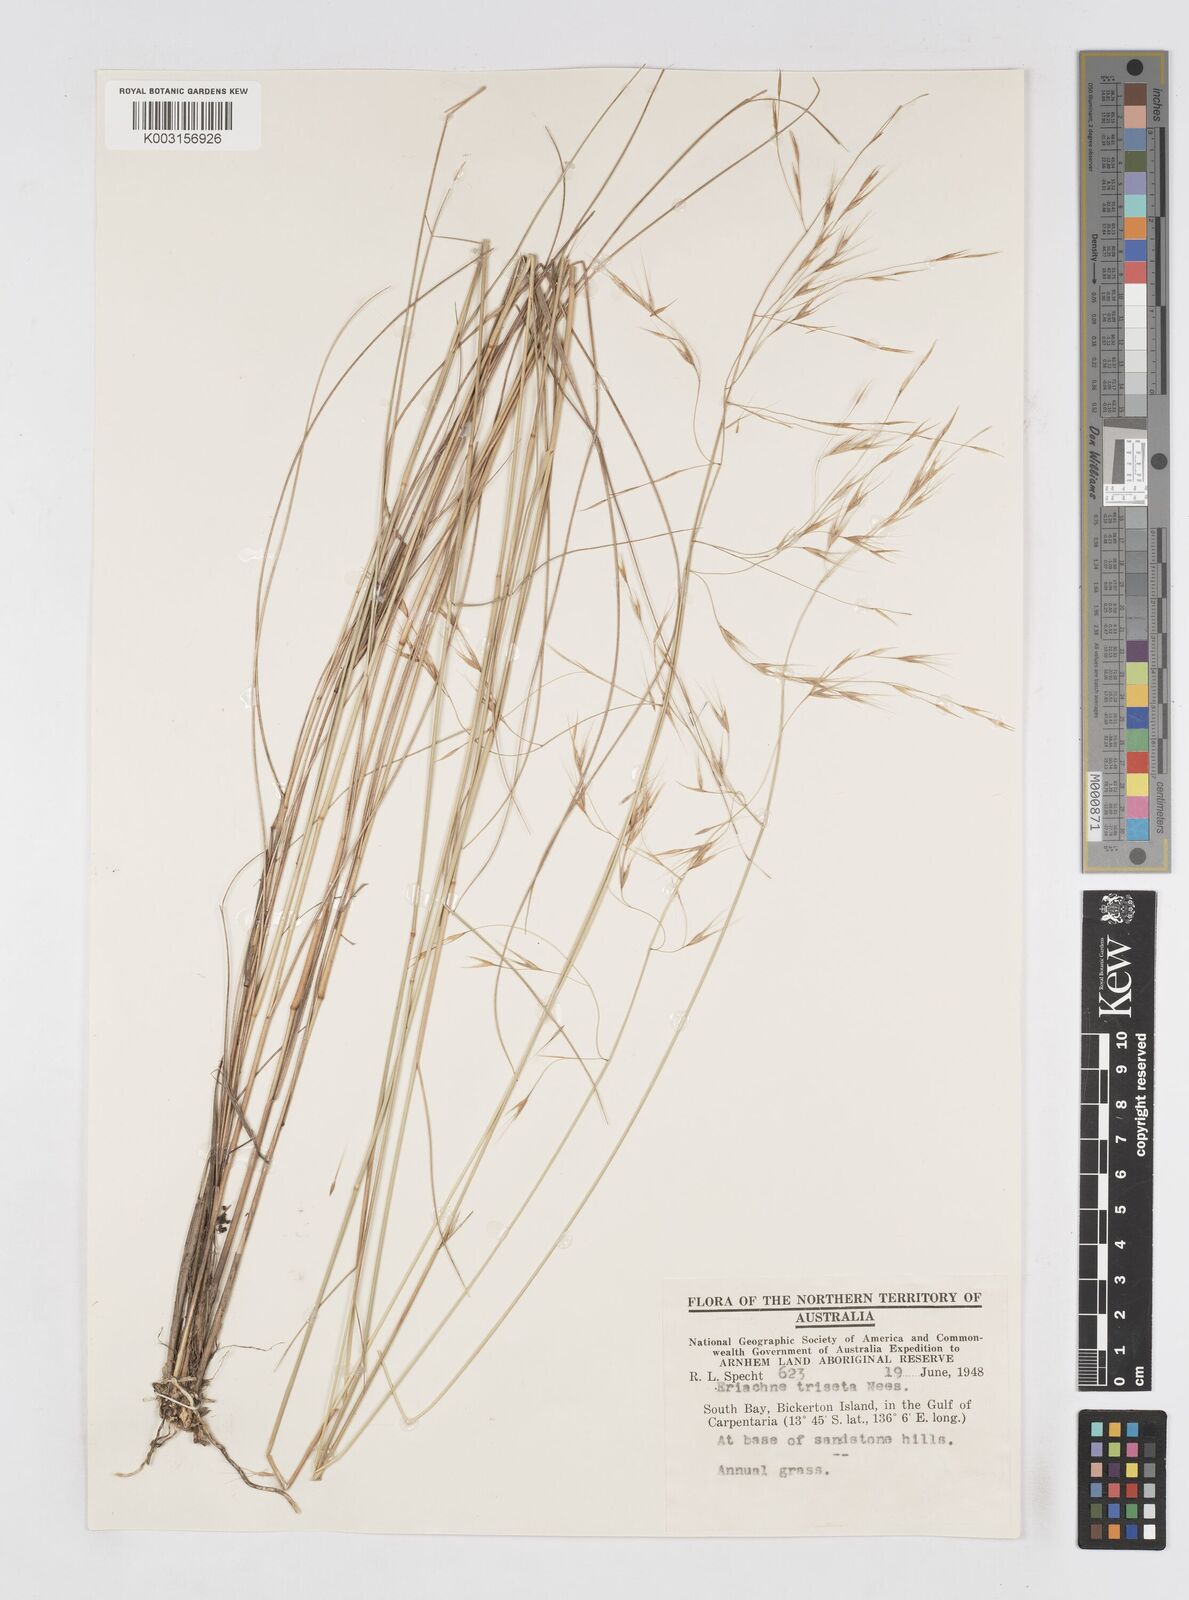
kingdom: Plantae
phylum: Tracheophyta
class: Liliopsida
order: Poales
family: Poaceae
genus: Eriachne
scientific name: Eriachne triseta
